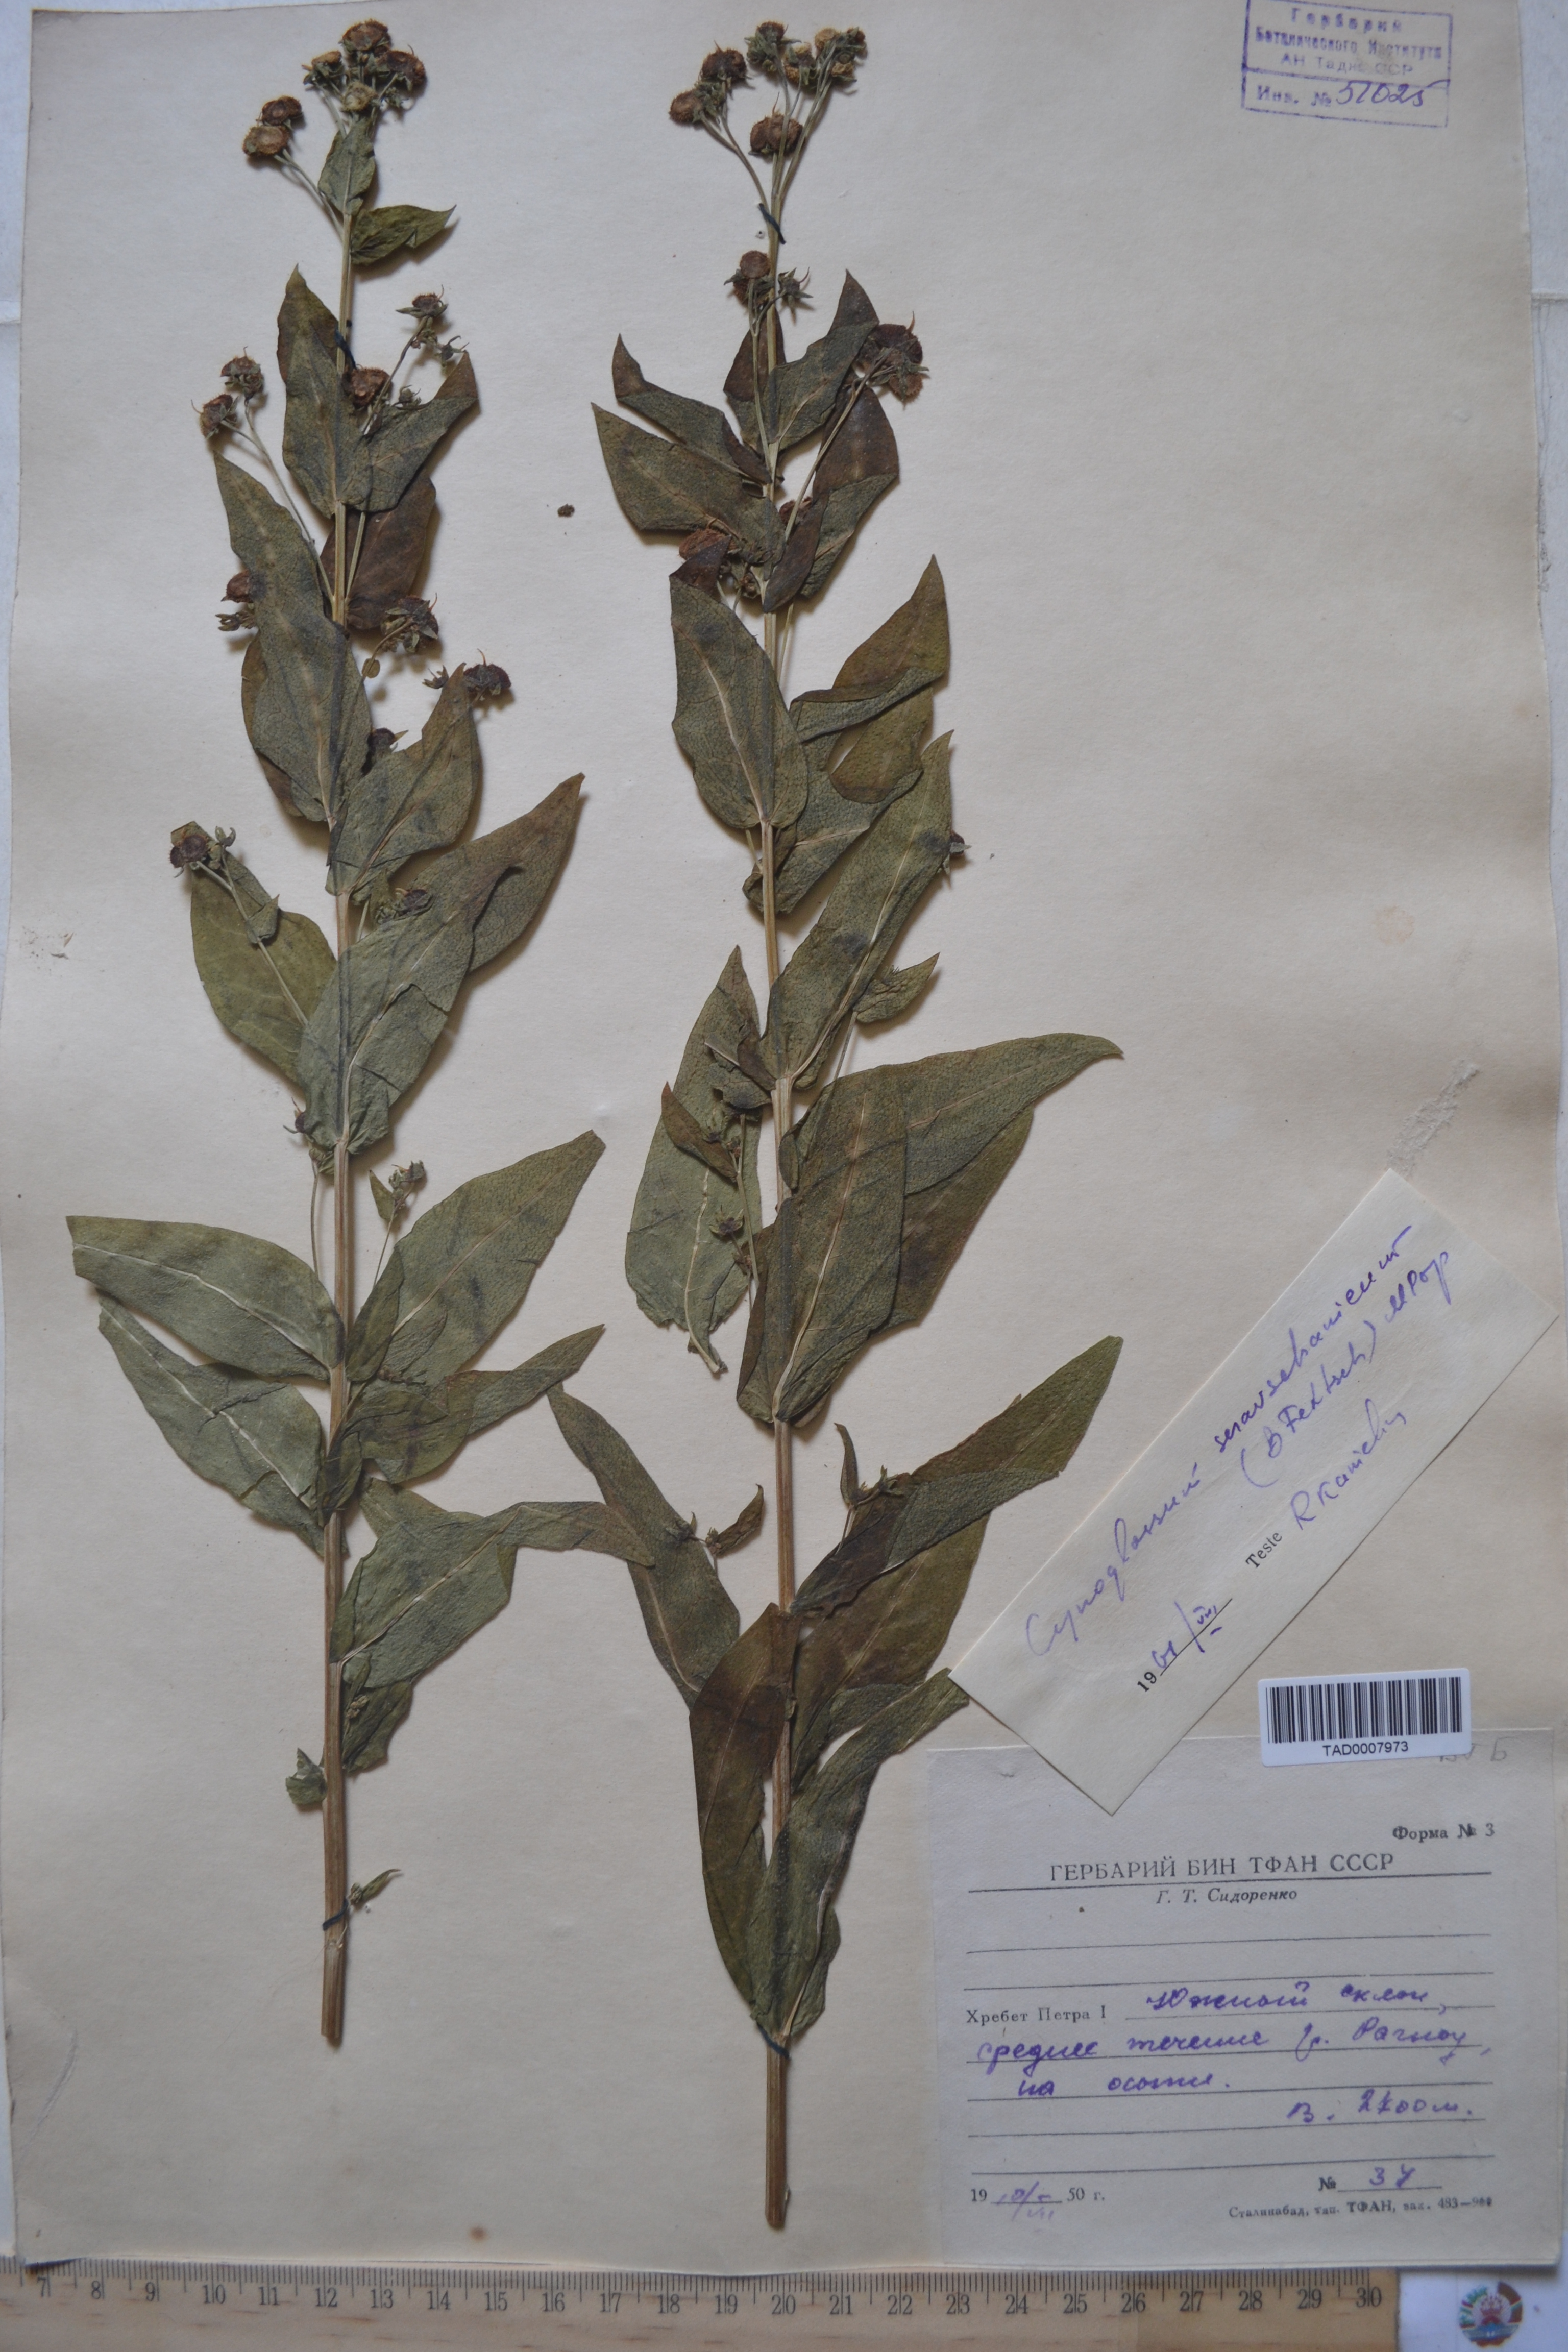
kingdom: Plantae
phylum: Tracheophyta
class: Magnoliopsida
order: Boraginales
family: Boraginaceae
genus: Cynoglossum
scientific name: Cynoglossum
